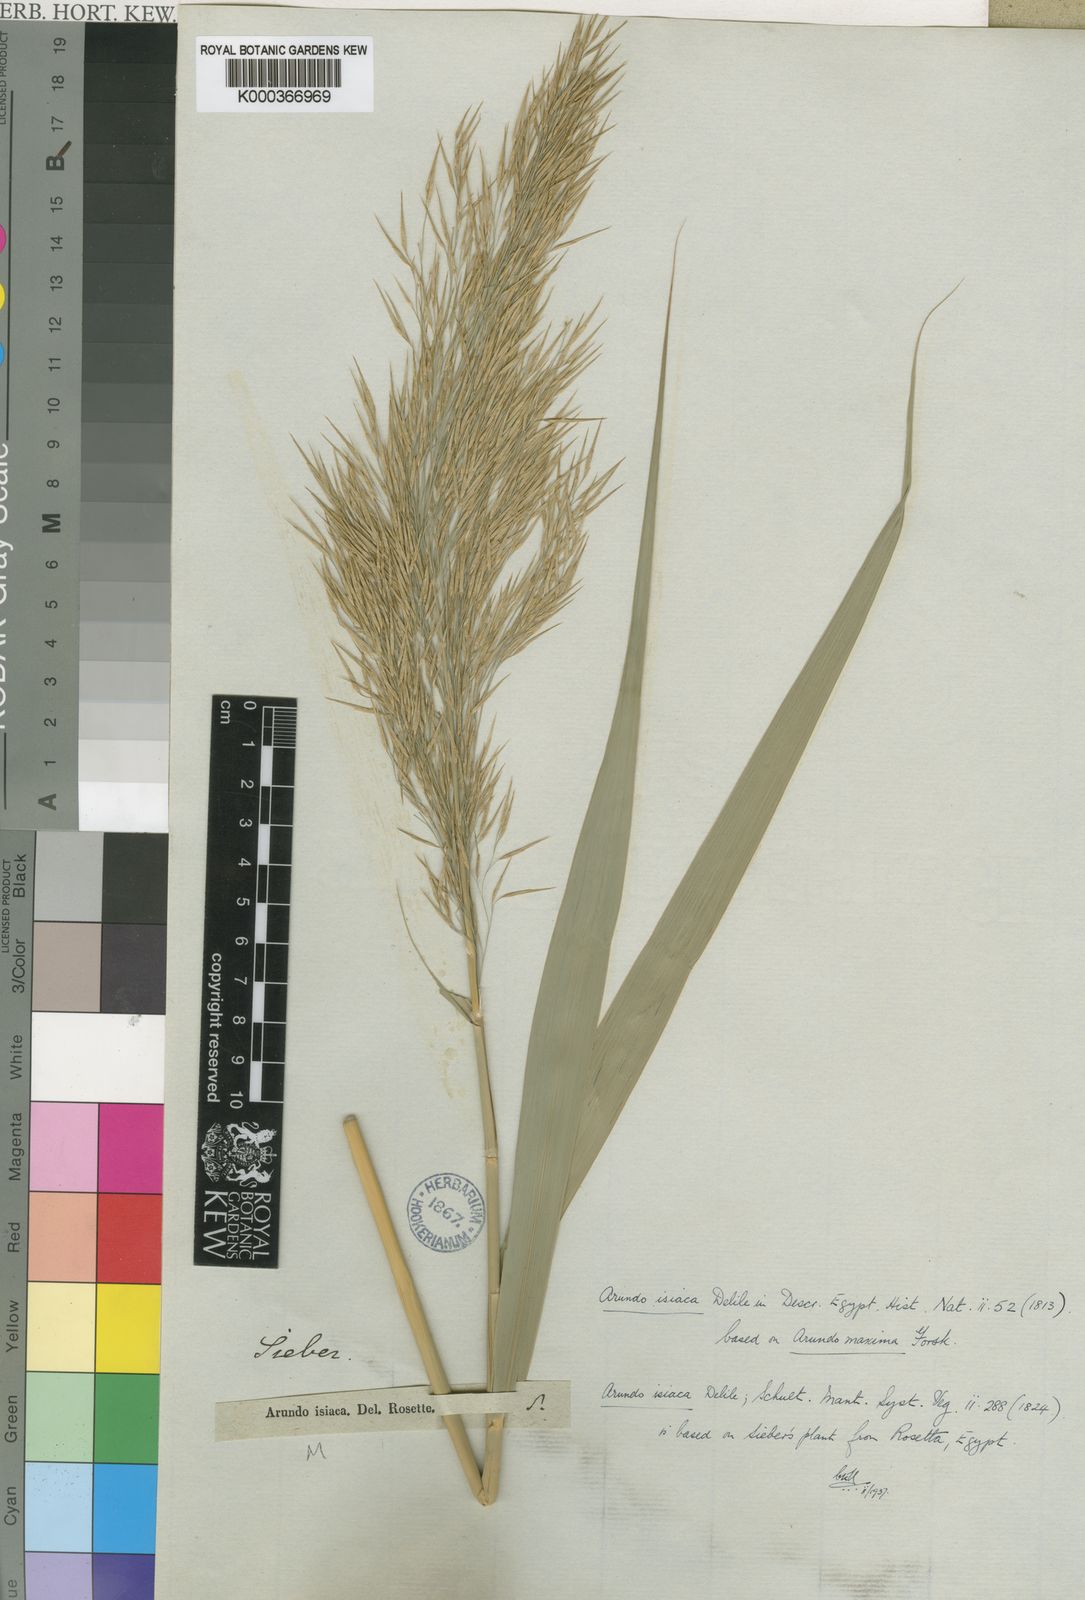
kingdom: Plantae
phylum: Tracheophyta
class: Liliopsida
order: Poales
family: Poaceae
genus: Phragmites
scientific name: Phragmites australis
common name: Common reed
